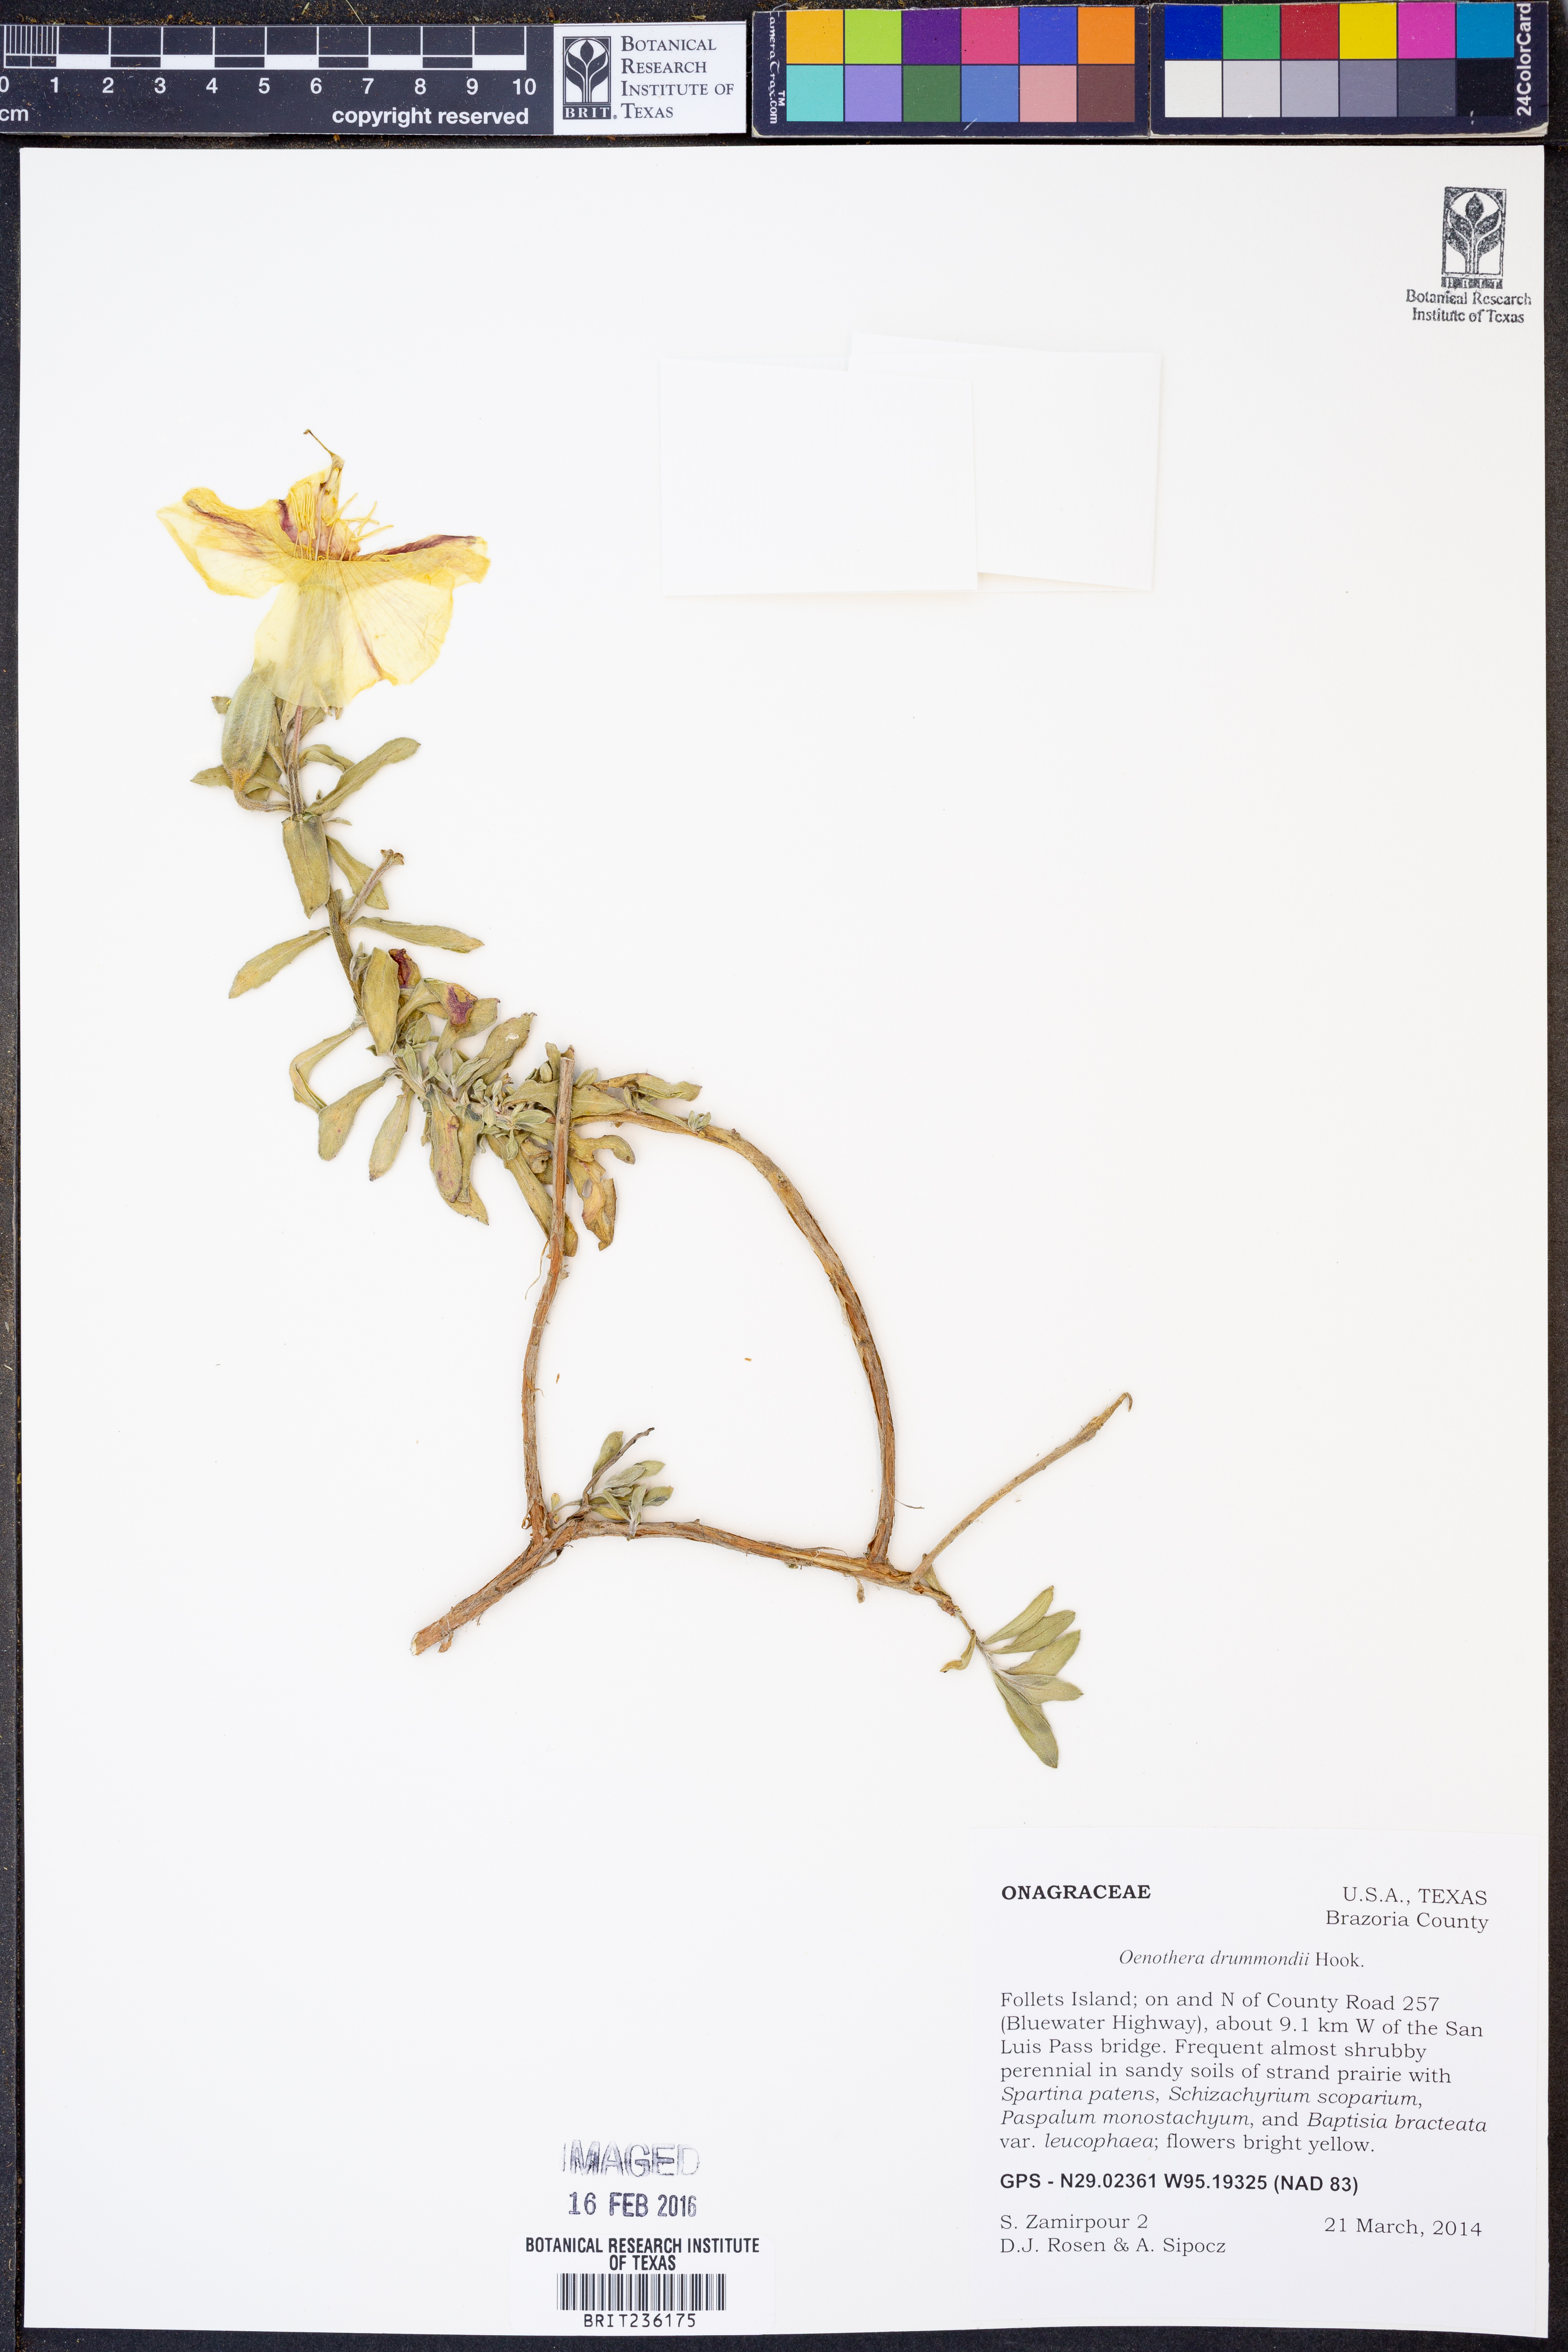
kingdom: Plantae
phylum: Tracheophyta
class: Magnoliopsida
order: Myrtales
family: Onagraceae
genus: Oenothera
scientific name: Oenothera drummondii
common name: Beach evening-primrose
